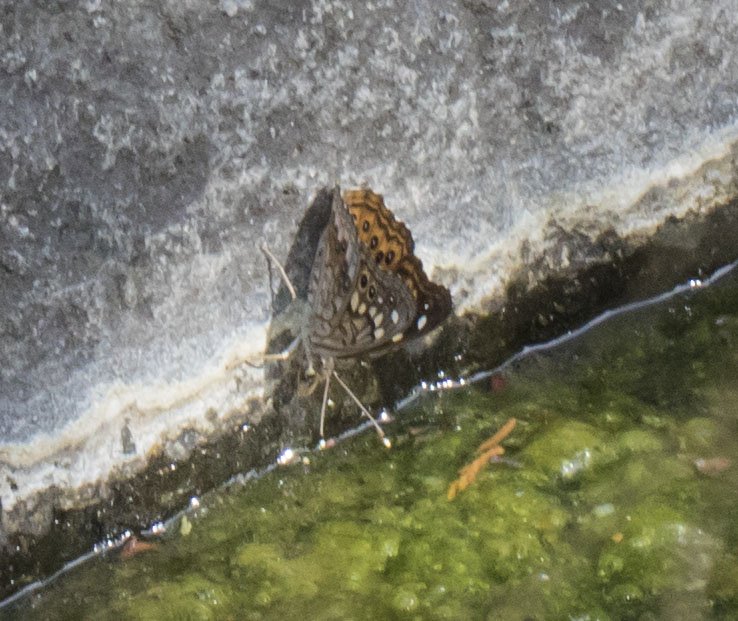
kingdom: Animalia
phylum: Arthropoda
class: Insecta
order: Lepidoptera
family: Nymphalidae
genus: Asterocampa
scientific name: Asterocampa celtis
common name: Hackberry Emperor
